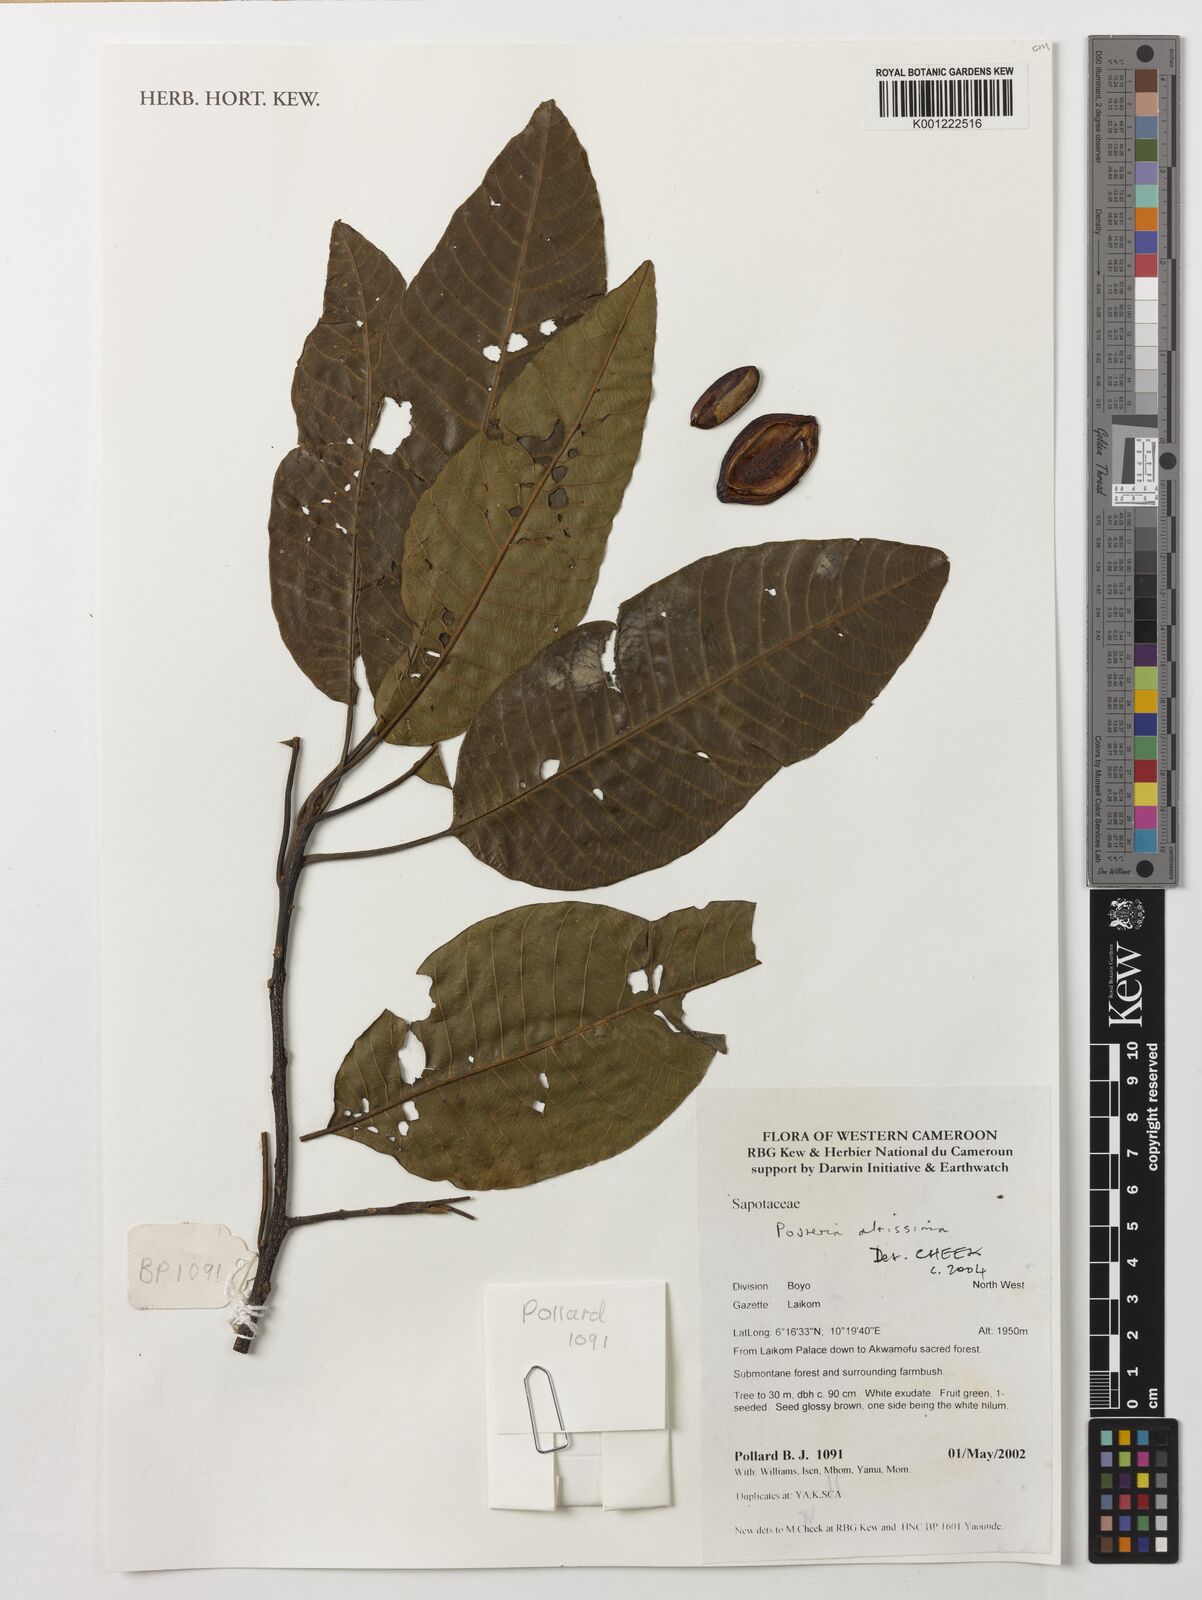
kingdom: Plantae
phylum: Tracheophyta
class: Magnoliopsida
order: Ericales
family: Sapotaceae
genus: Aningeria
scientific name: Aningeria altissima
